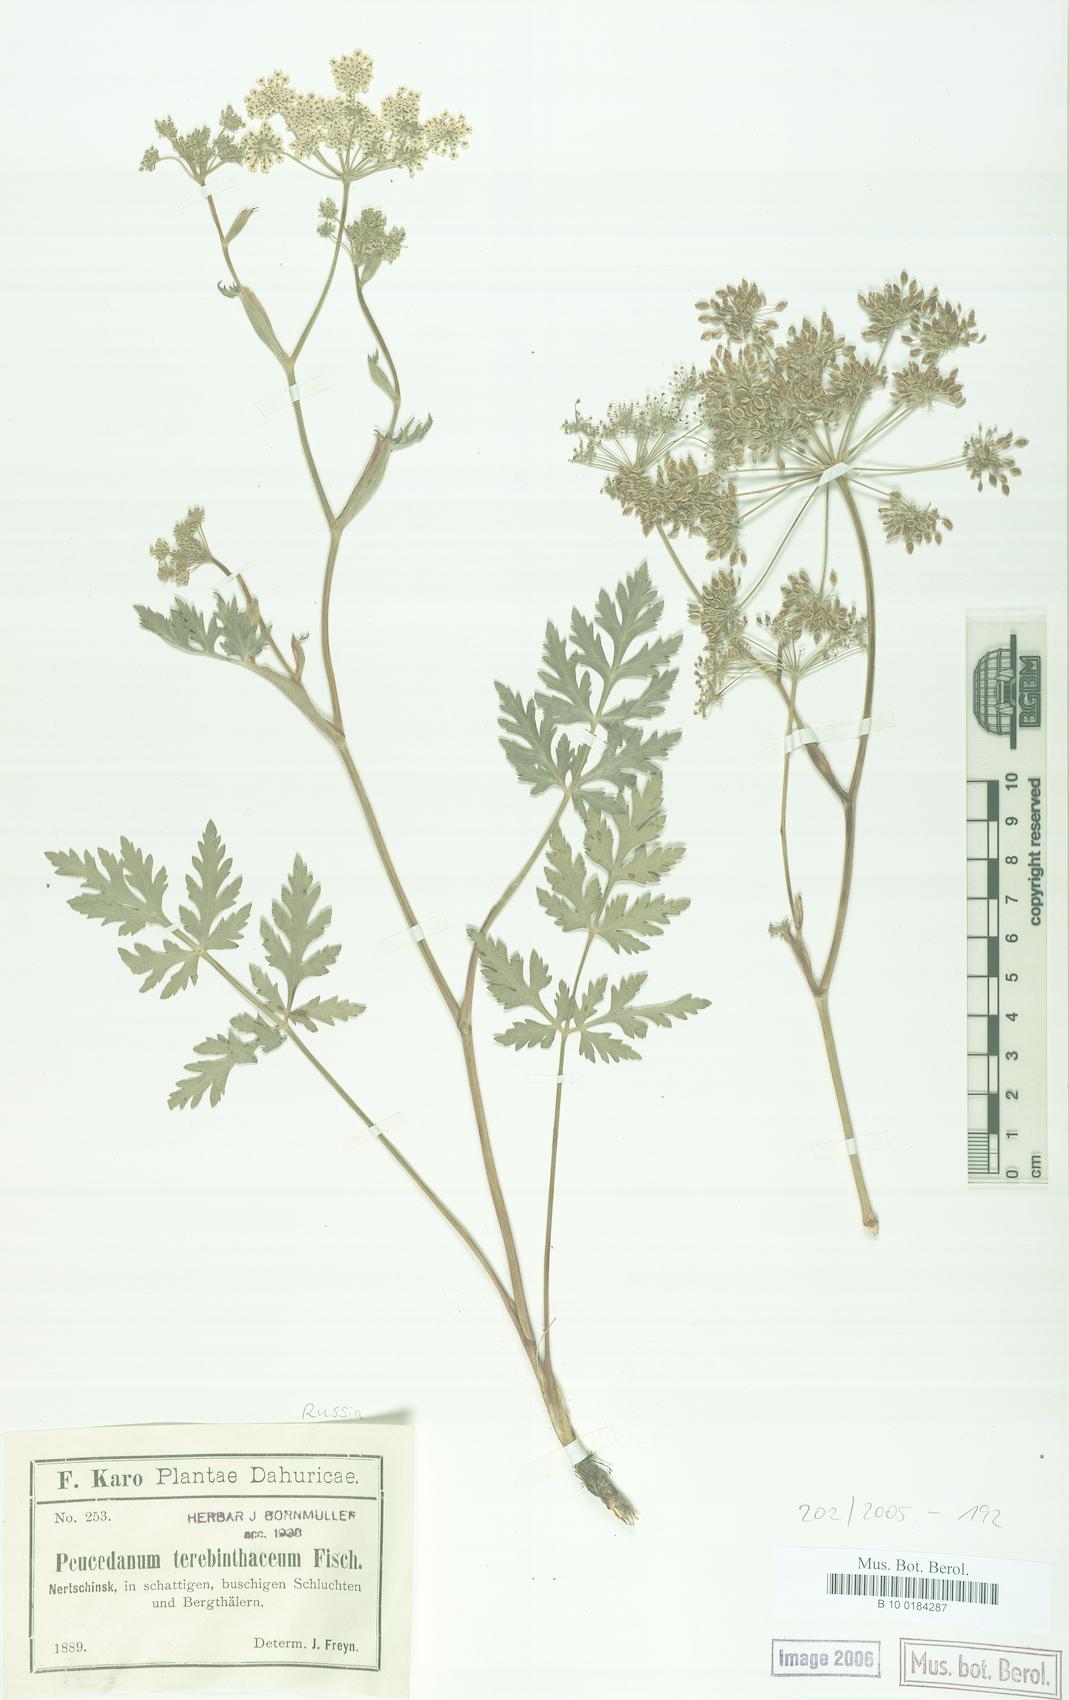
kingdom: Plantae
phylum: Tracheophyta
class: Magnoliopsida
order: Apiales
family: Apiaceae
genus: Kitagawia
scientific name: Kitagawia terebinthacea
